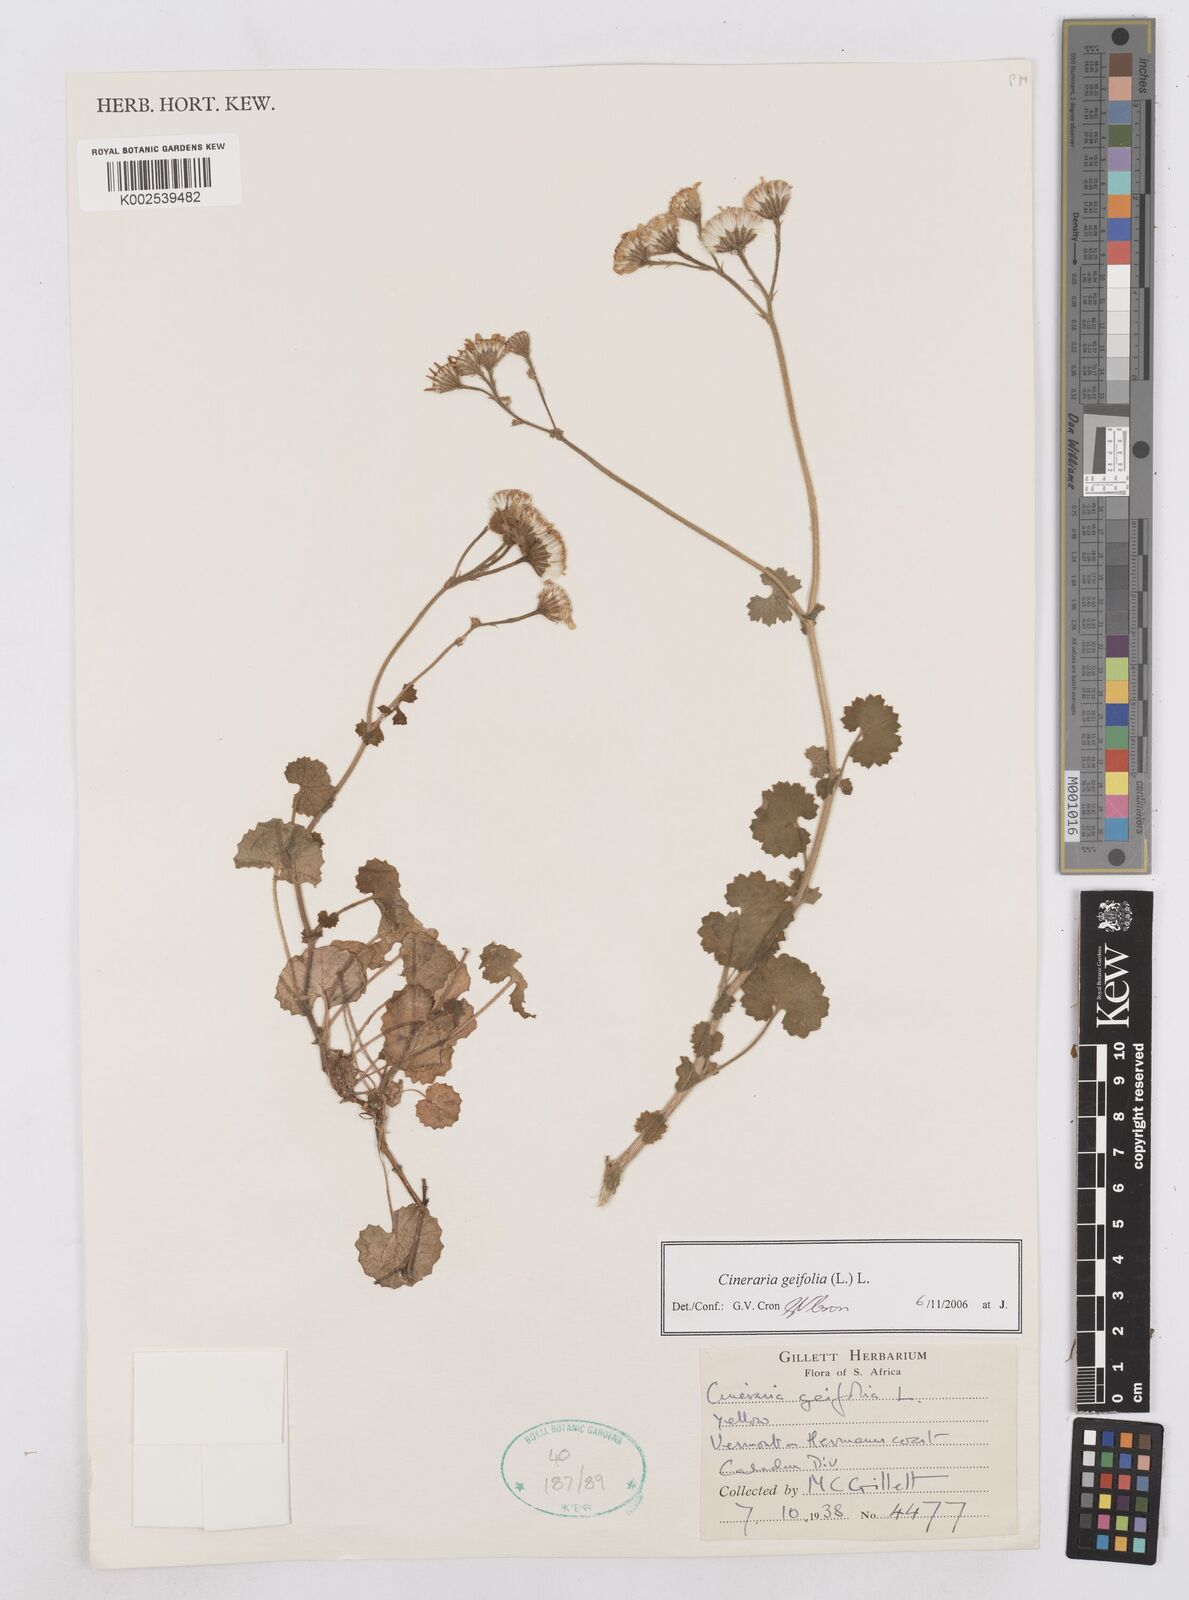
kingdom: Plantae
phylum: Tracheophyta
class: Magnoliopsida
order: Asterales
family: Asteraceae
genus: Cineraria
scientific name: Cineraria geifolia
